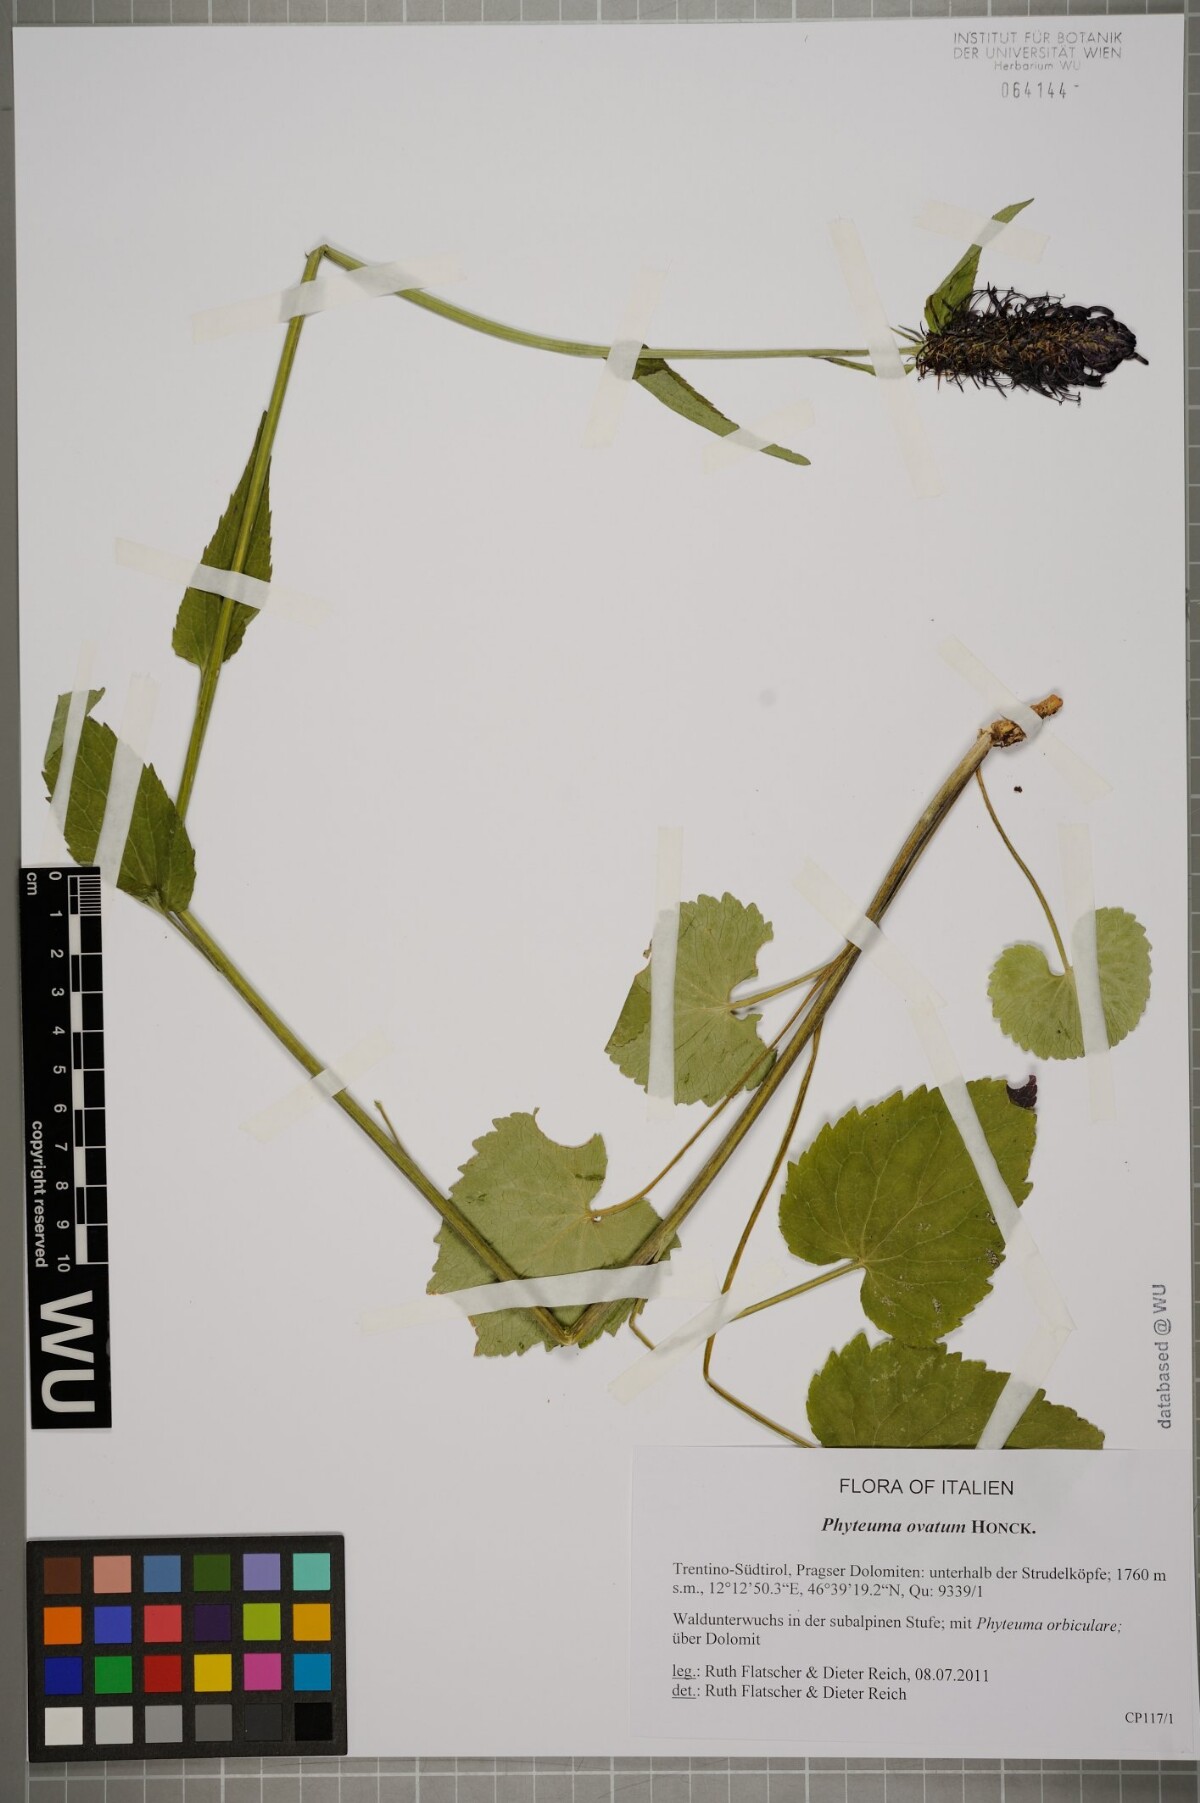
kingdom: Plantae
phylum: Tracheophyta
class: Magnoliopsida
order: Asterales
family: Campanulaceae
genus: Phyteuma
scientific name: Phyteuma ovatum
